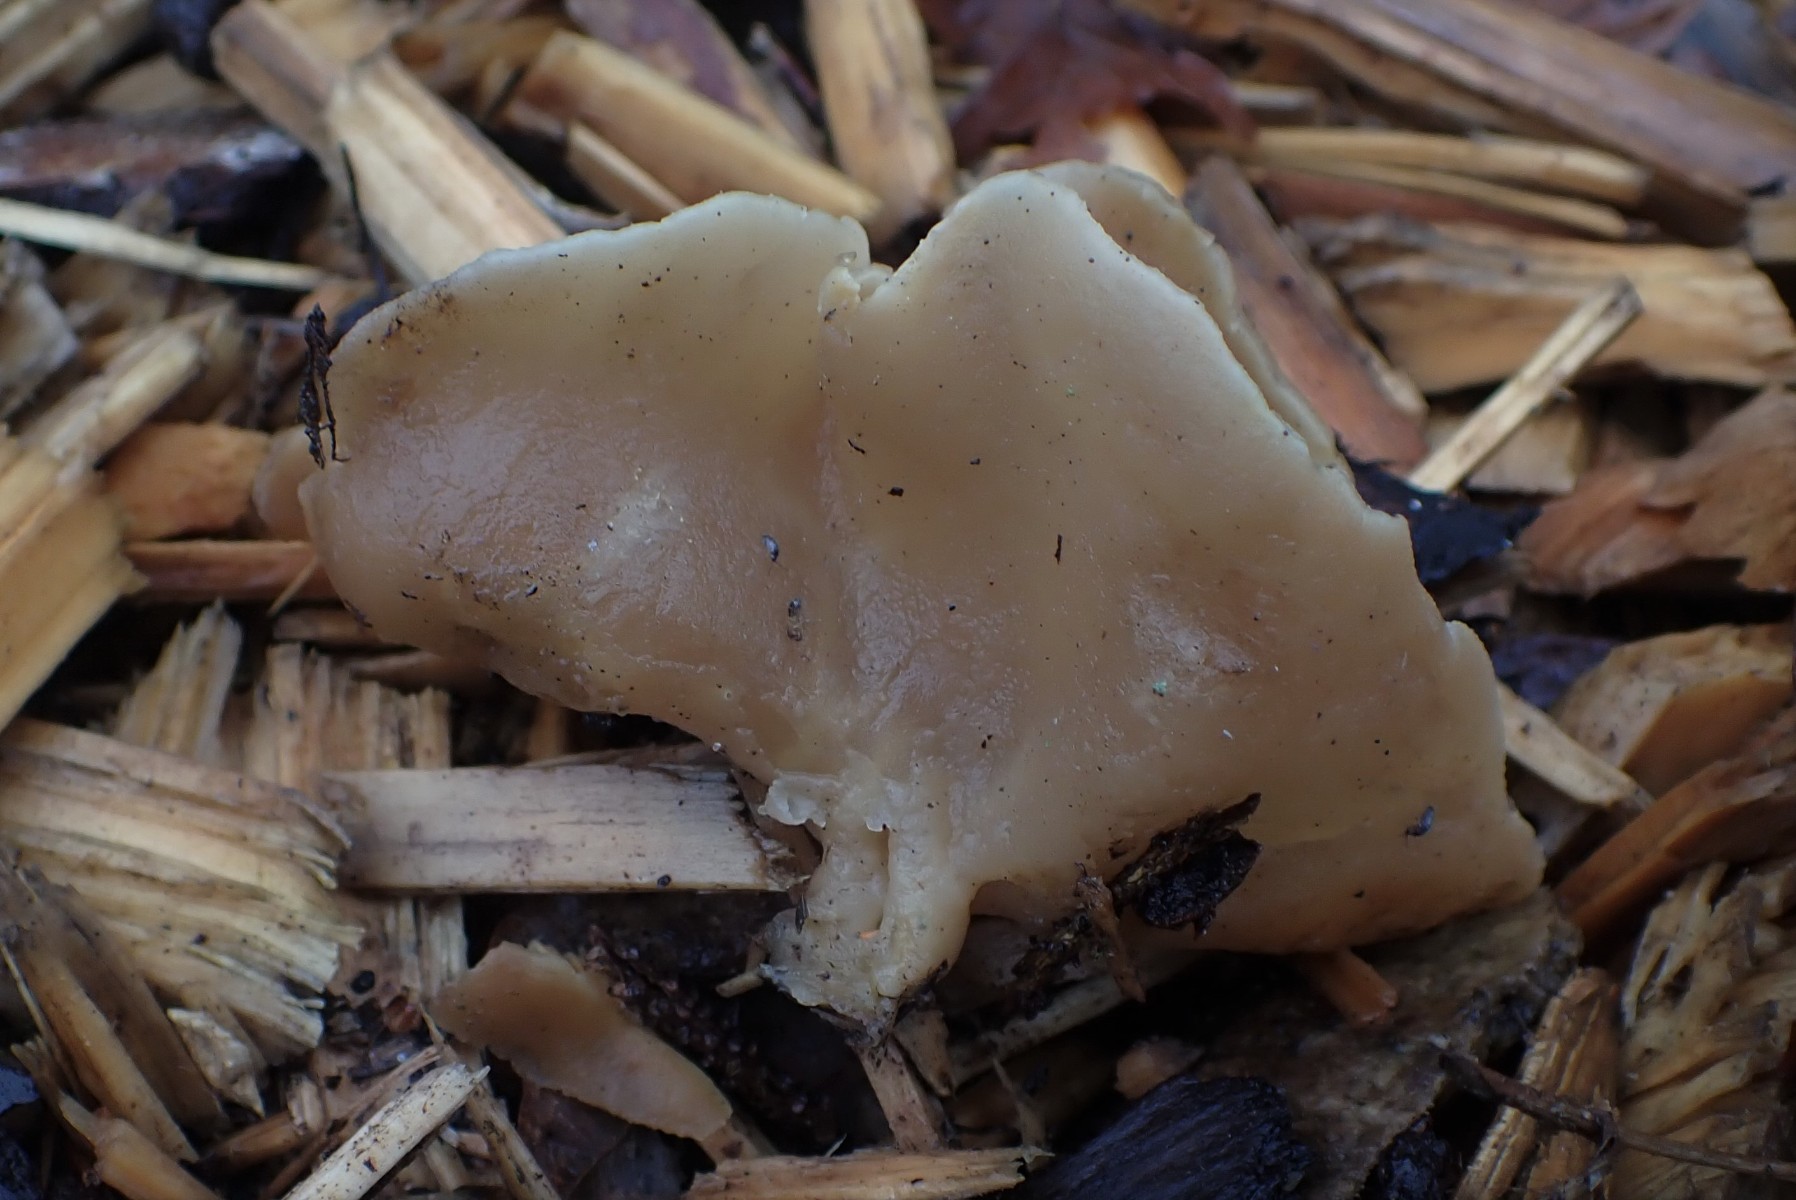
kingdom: Fungi
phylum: Ascomycota
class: Pezizomycetes
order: Pezizales
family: Pezizaceae
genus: Peziza
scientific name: Peziza
